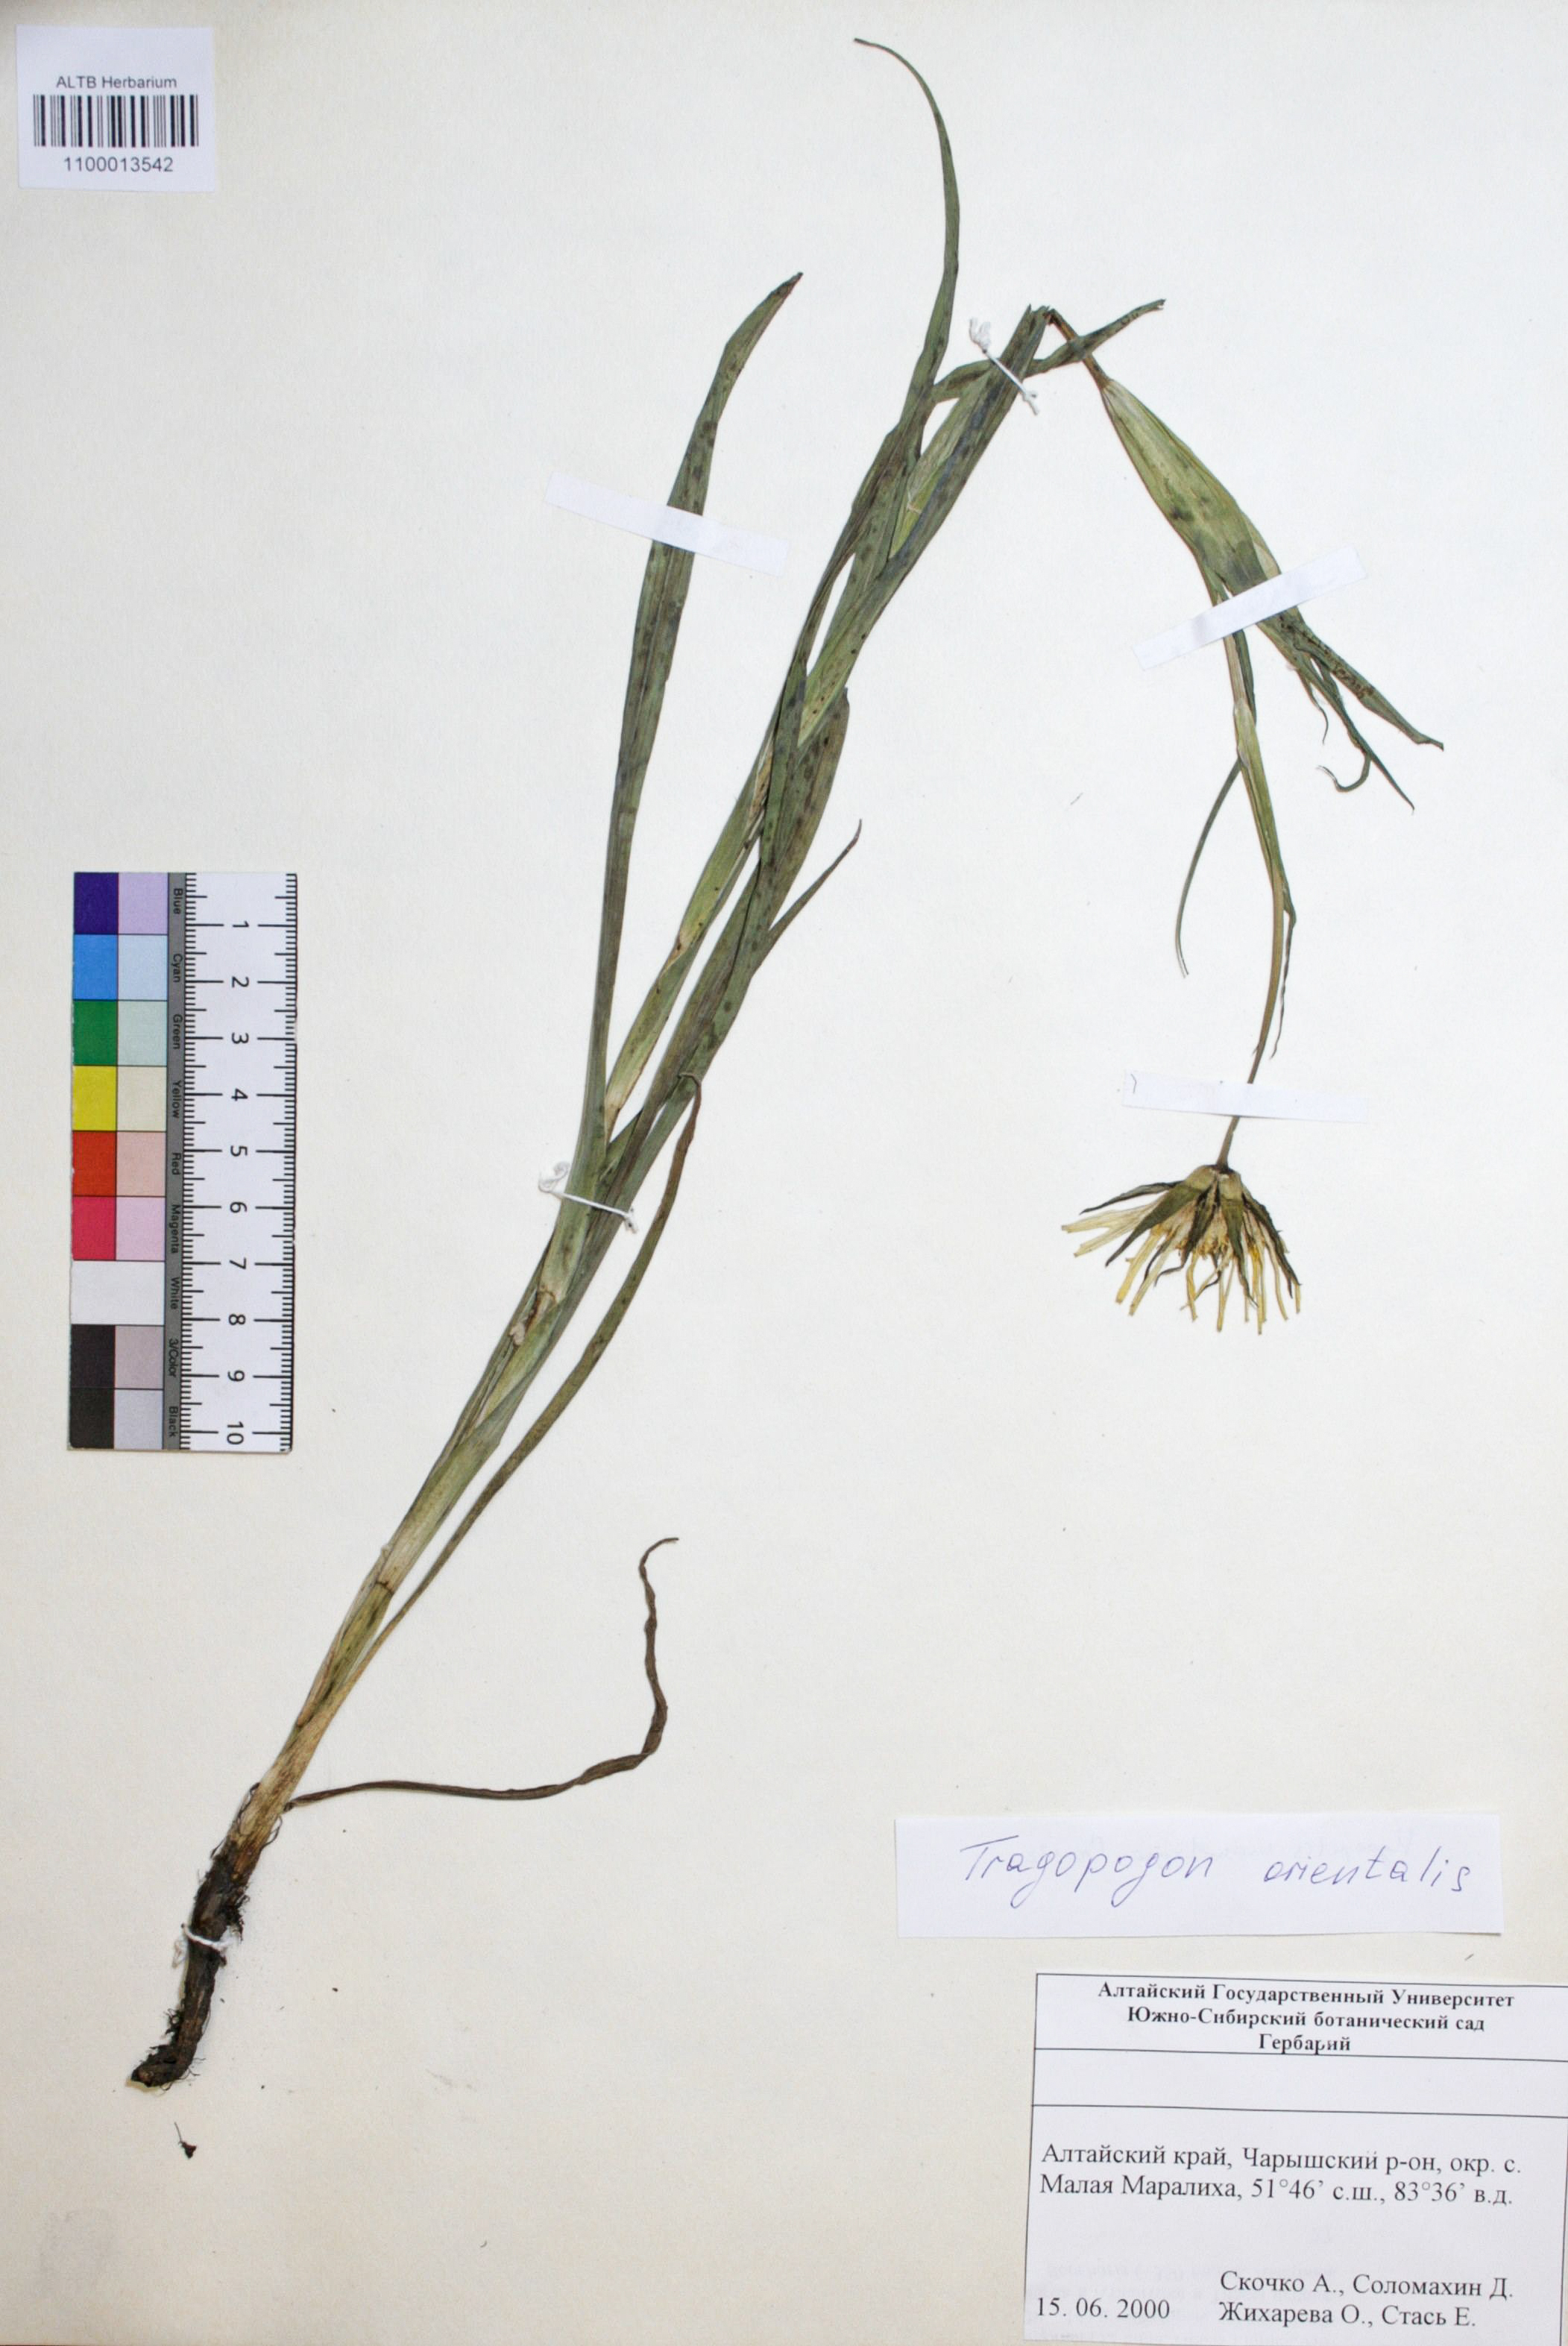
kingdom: Plantae
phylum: Tracheophyta
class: Magnoliopsida
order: Asterales
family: Asteraceae
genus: Tragopogon
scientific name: Tragopogon orientalis
